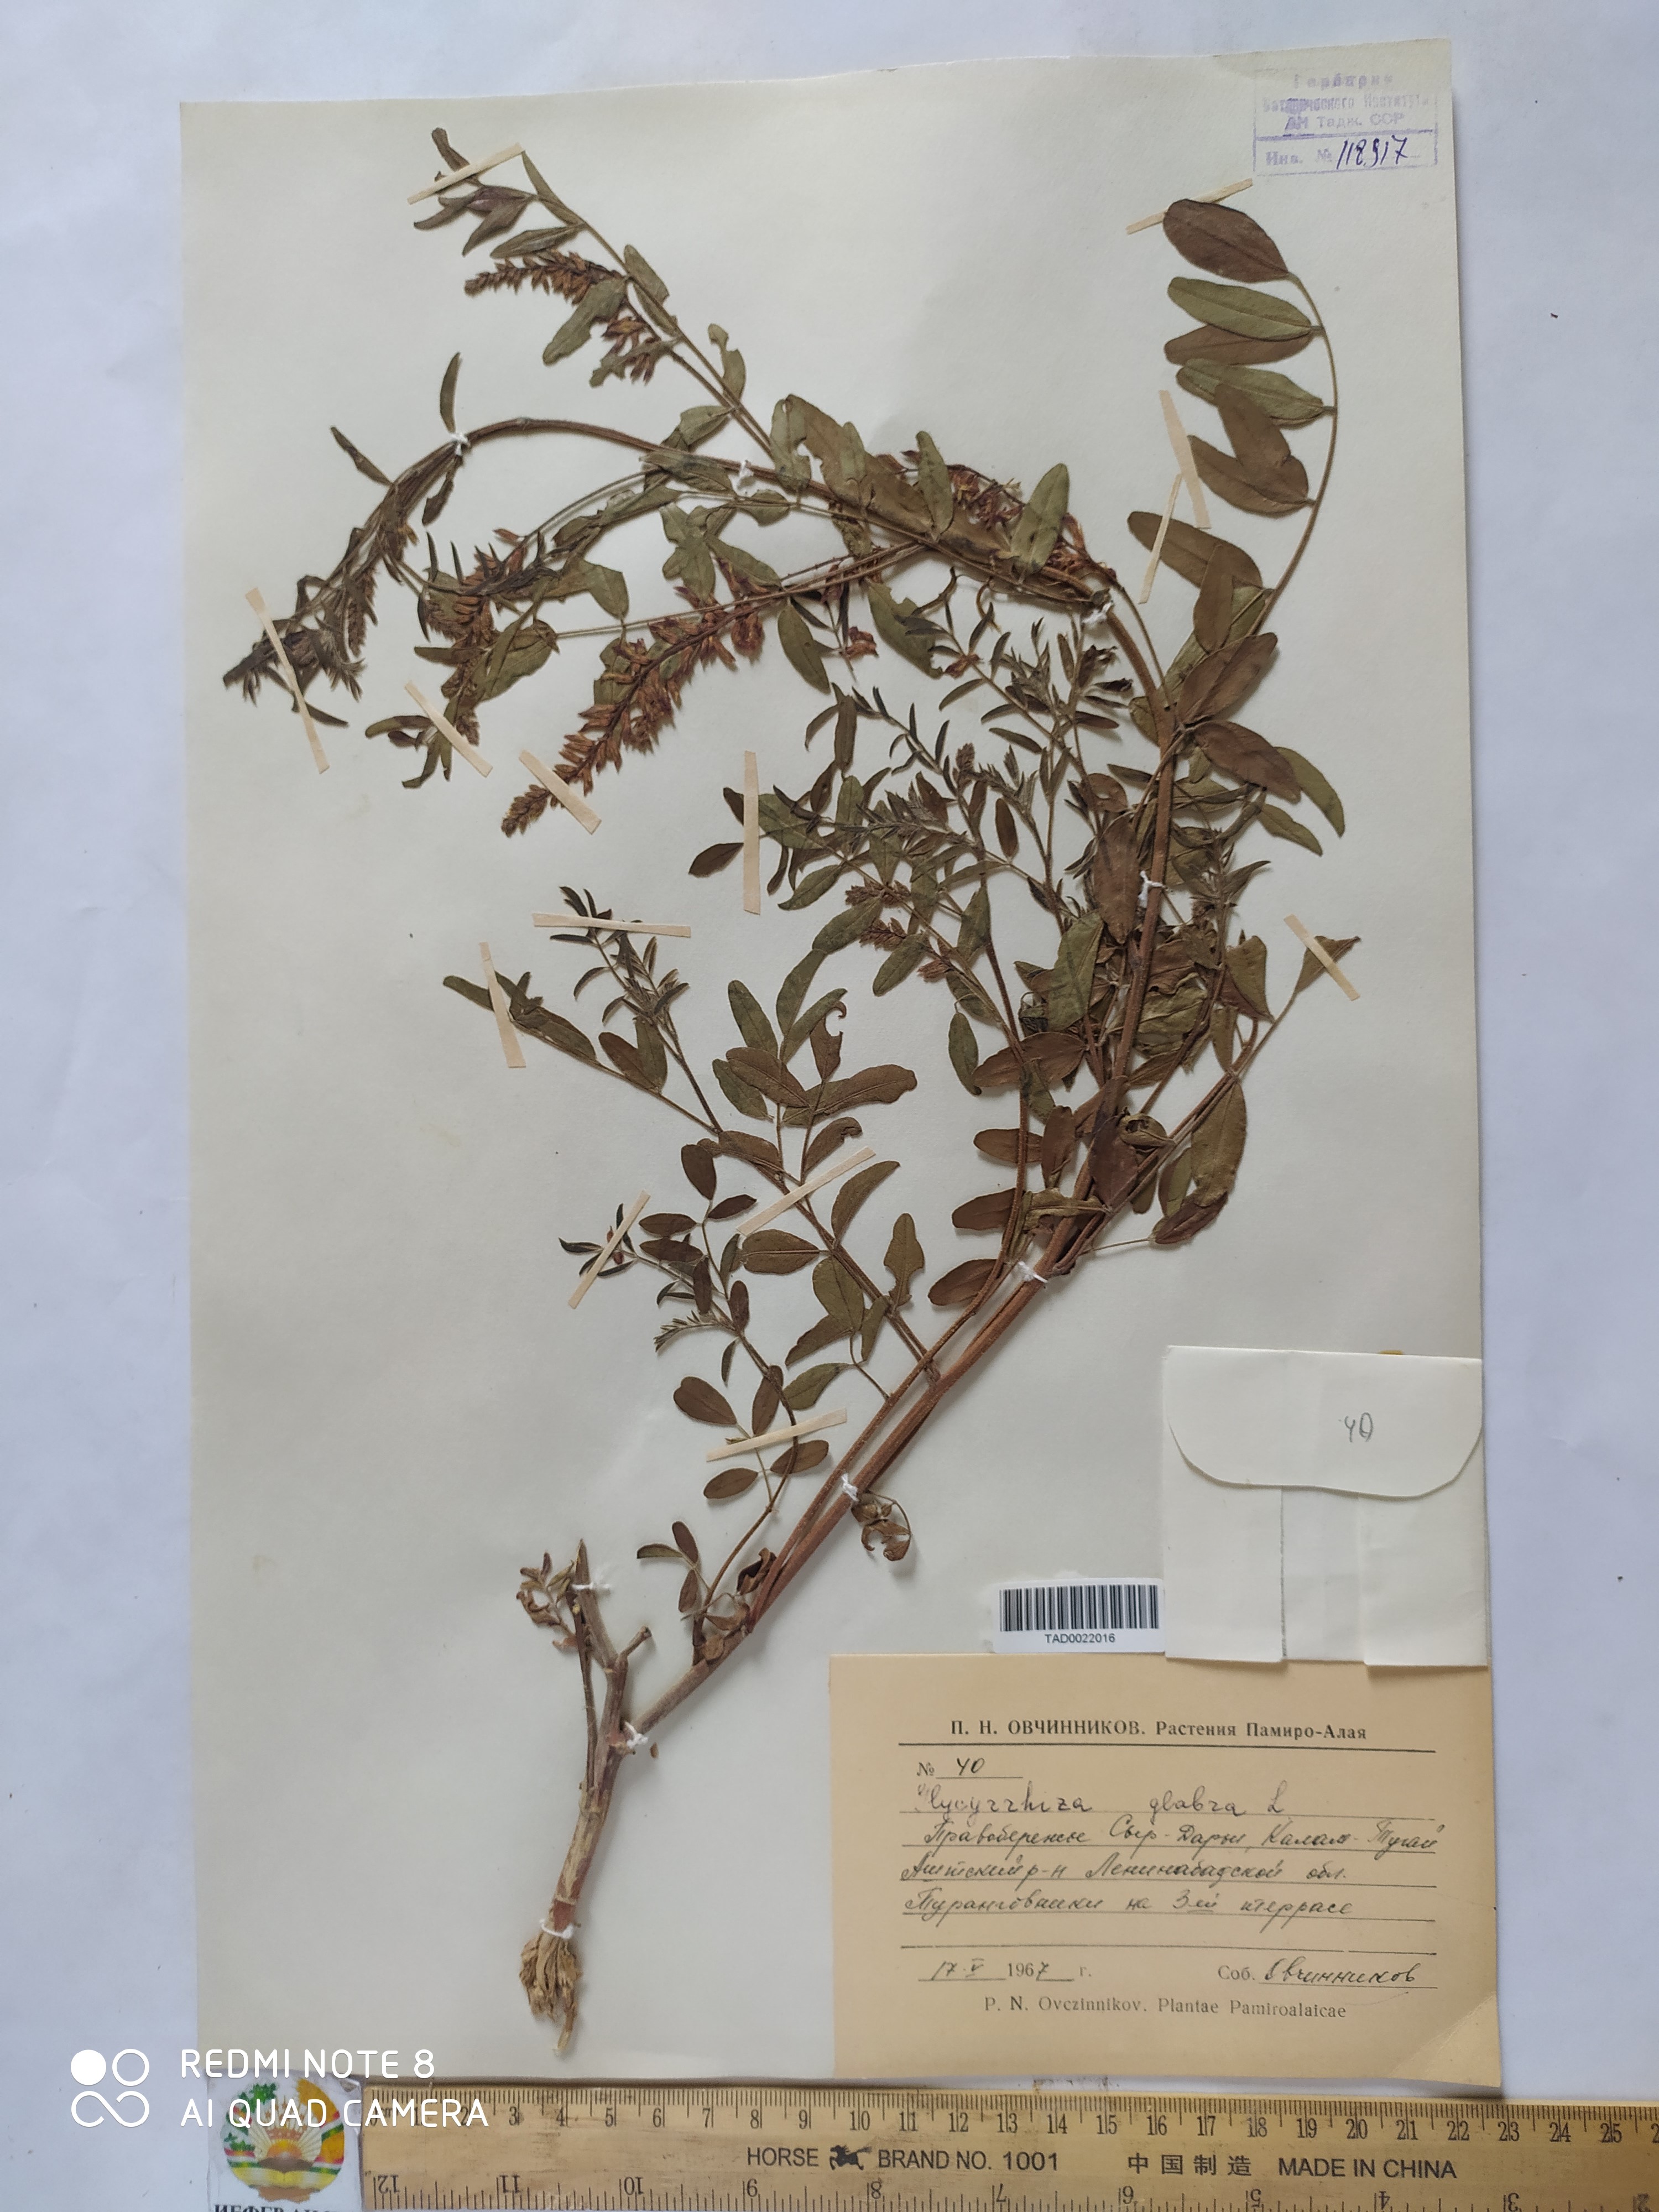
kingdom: Plantae
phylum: Tracheophyta
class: Magnoliopsida
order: Fabales
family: Fabaceae
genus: Glycyrrhiza
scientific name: Glycyrrhiza glabra
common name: Liquorice
